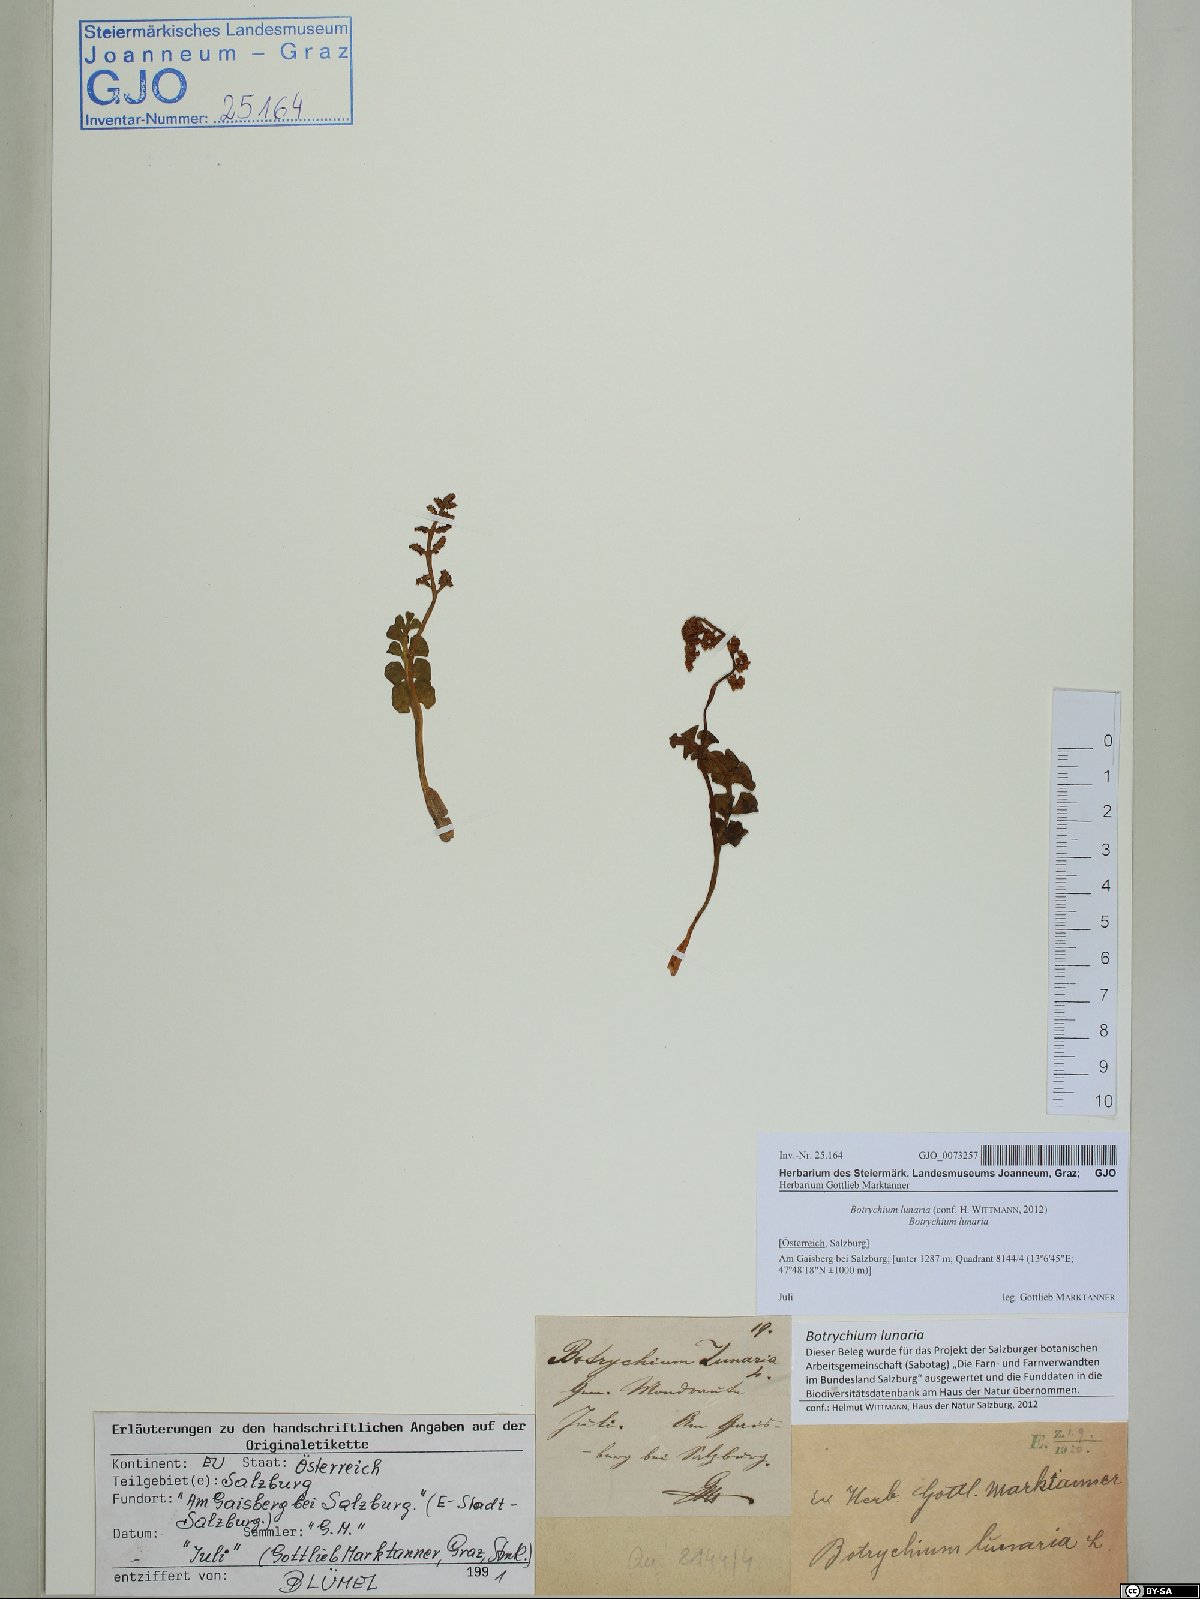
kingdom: Plantae
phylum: Tracheophyta
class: Polypodiopsida
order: Ophioglossales
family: Ophioglossaceae
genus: Botrychium
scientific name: Botrychium lunaria
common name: Moonwort
